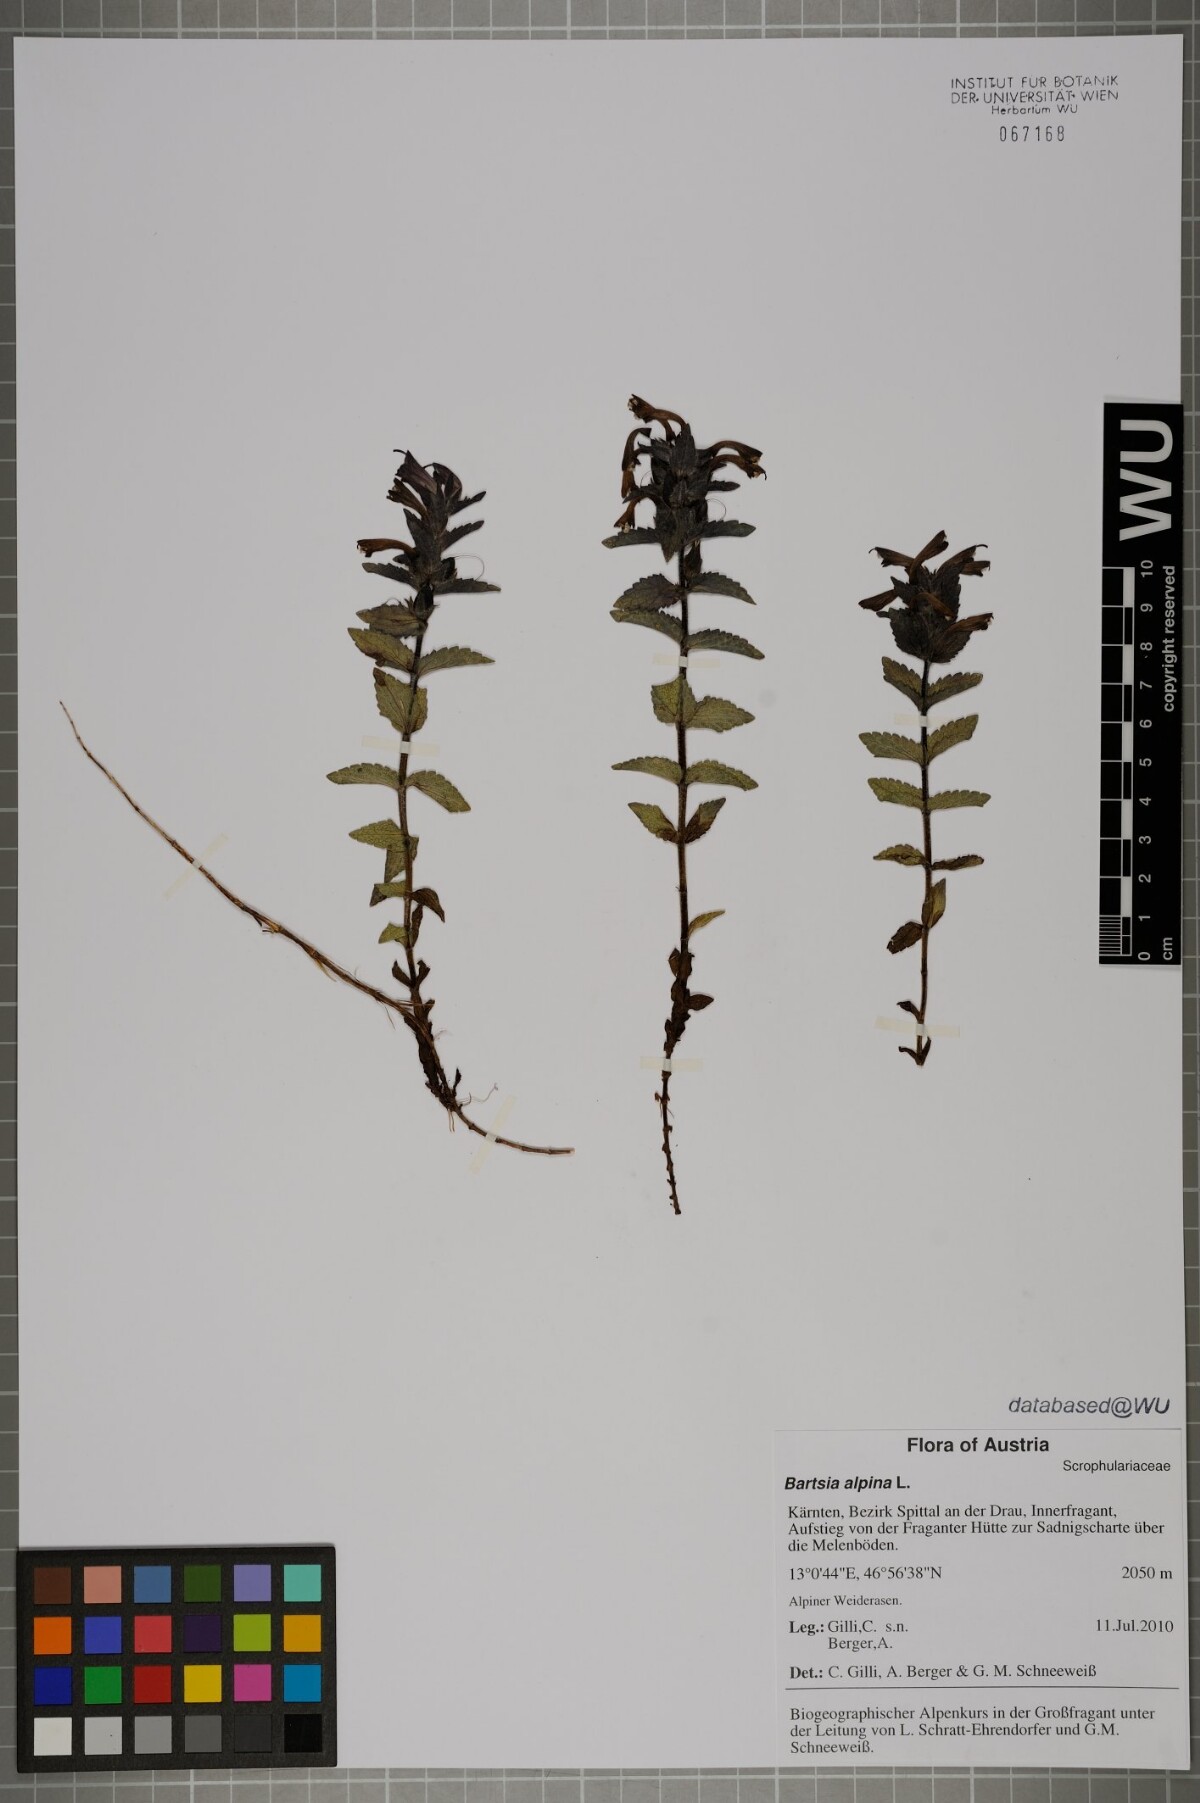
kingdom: Plantae
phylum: Tracheophyta
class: Magnoliopsida
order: Lamiales
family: Orobanchaceae
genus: Bartsia
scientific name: Bartsia alpina
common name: Alpine bartsia
